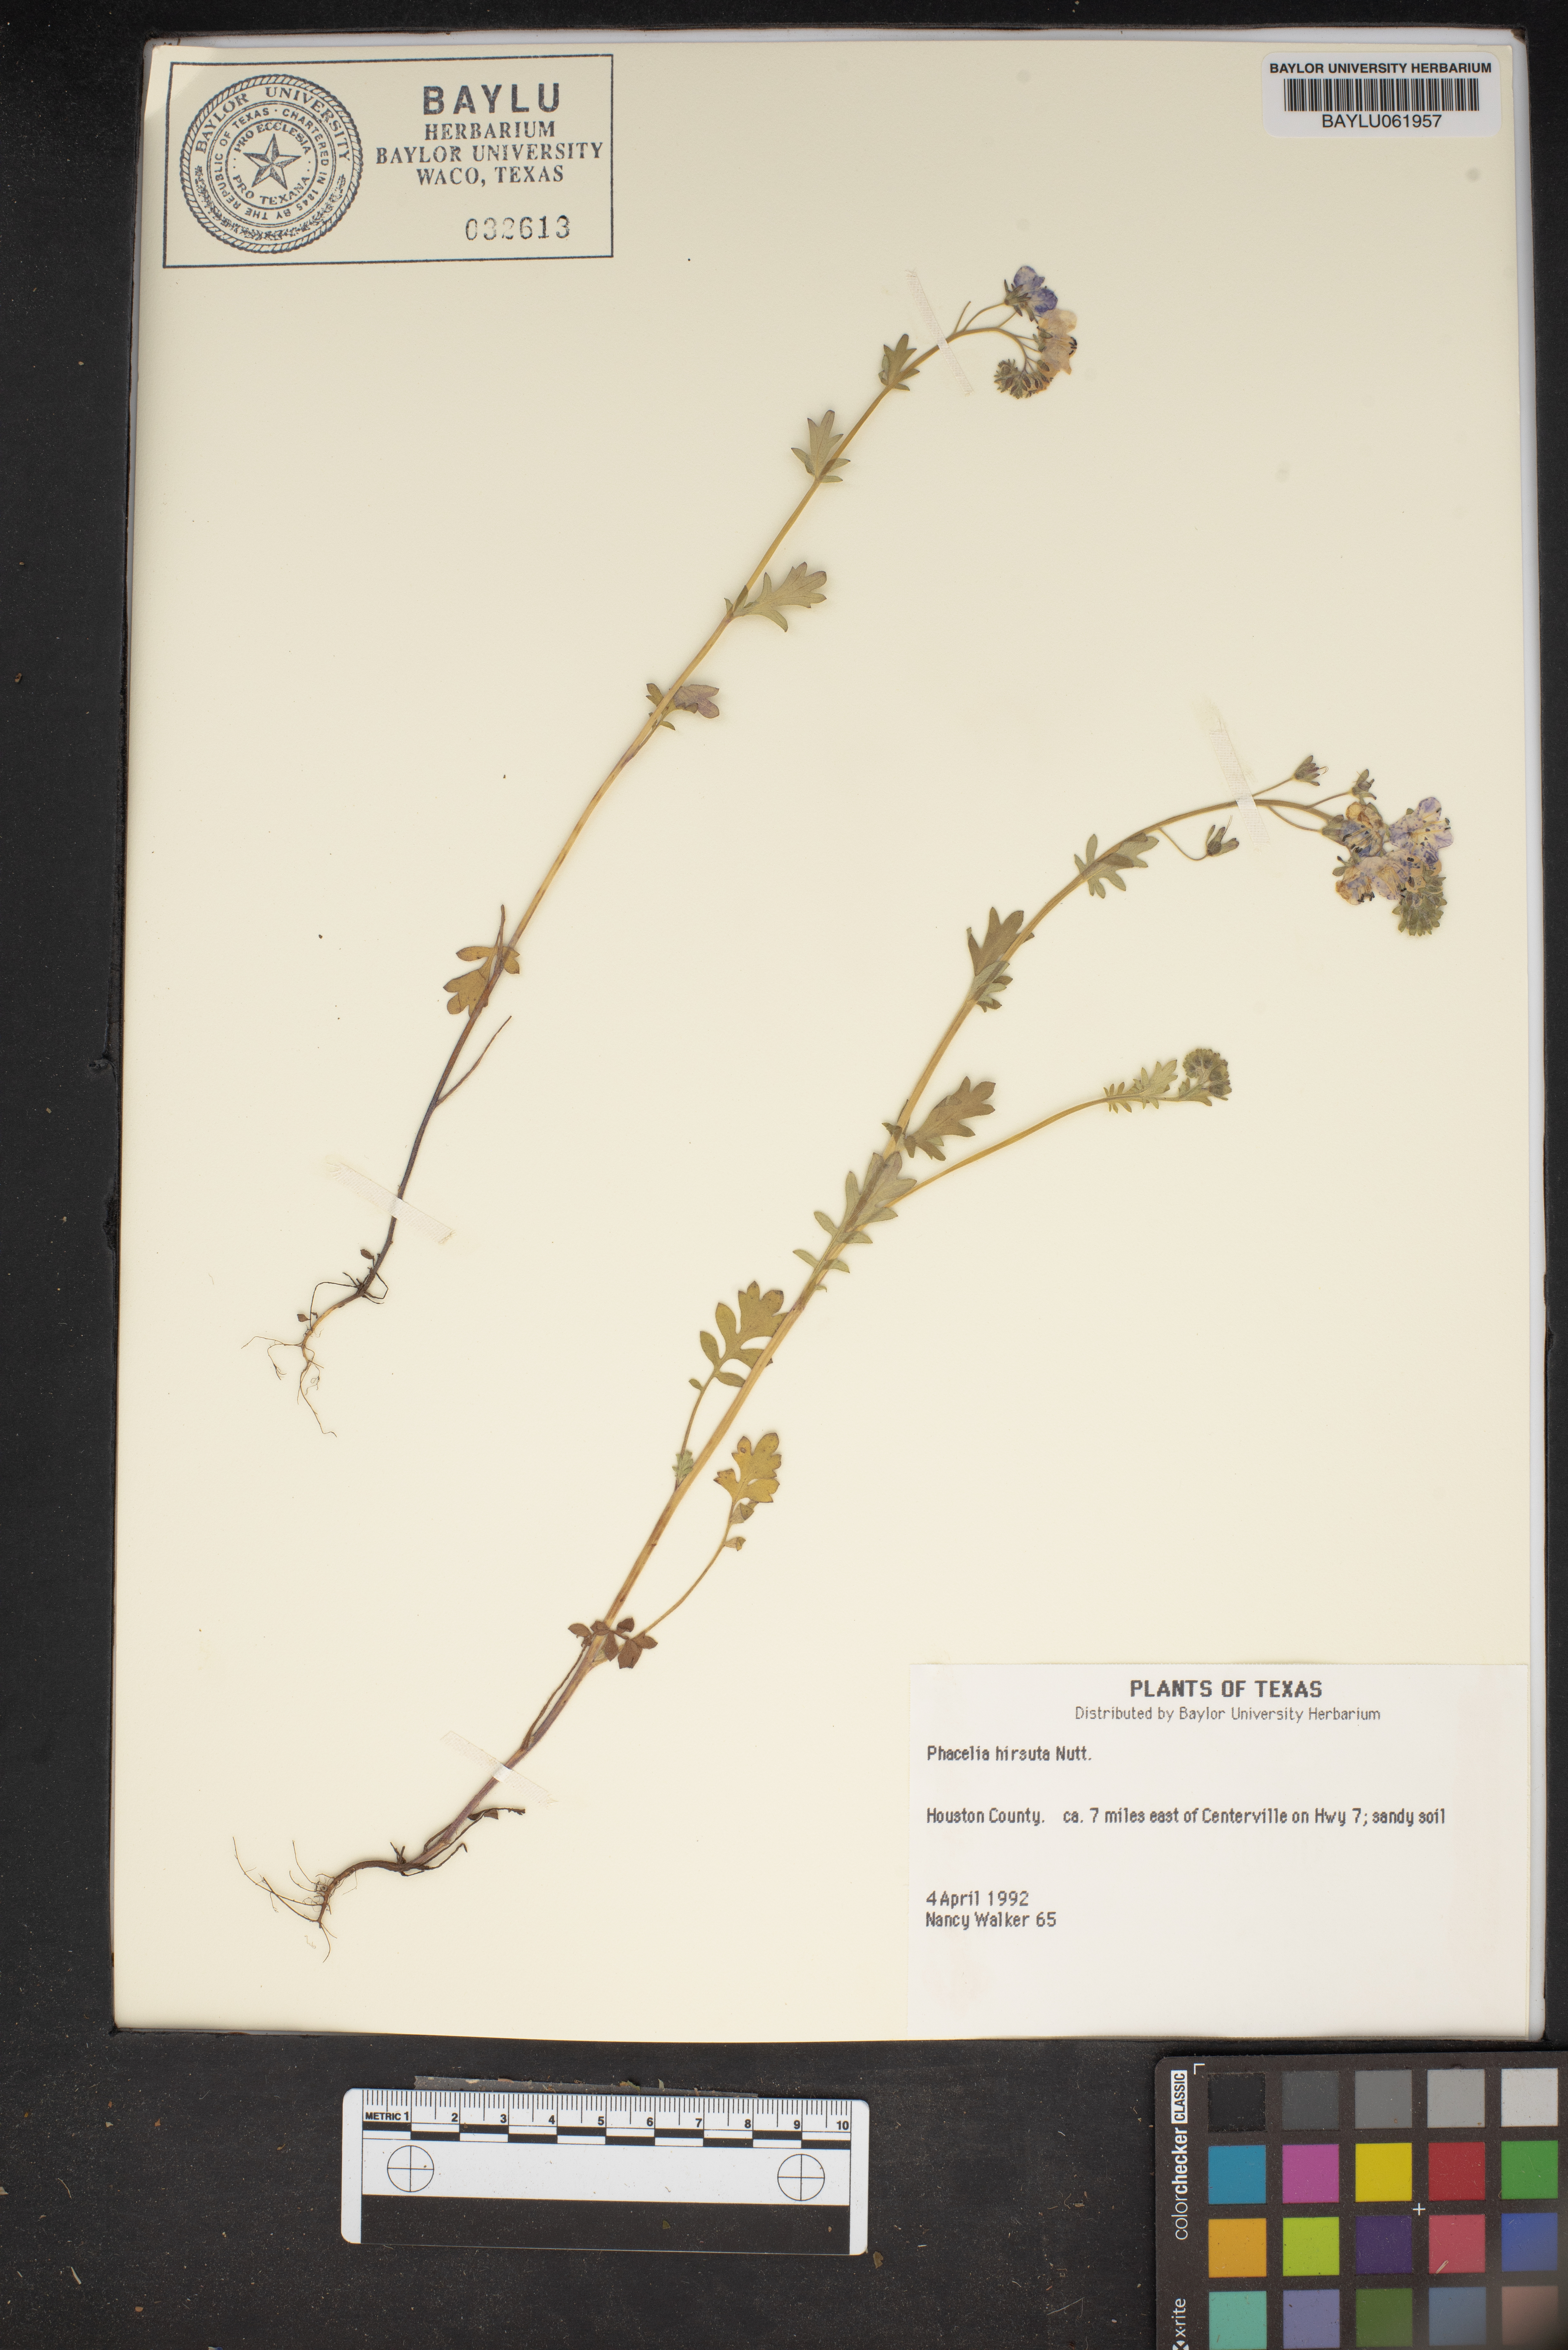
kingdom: Plantae
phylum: Tracheophyta
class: Magnoliopsida
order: Boraginales
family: Hydrophyllaceae
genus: Phacelia
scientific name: Phacelia hirsuta
